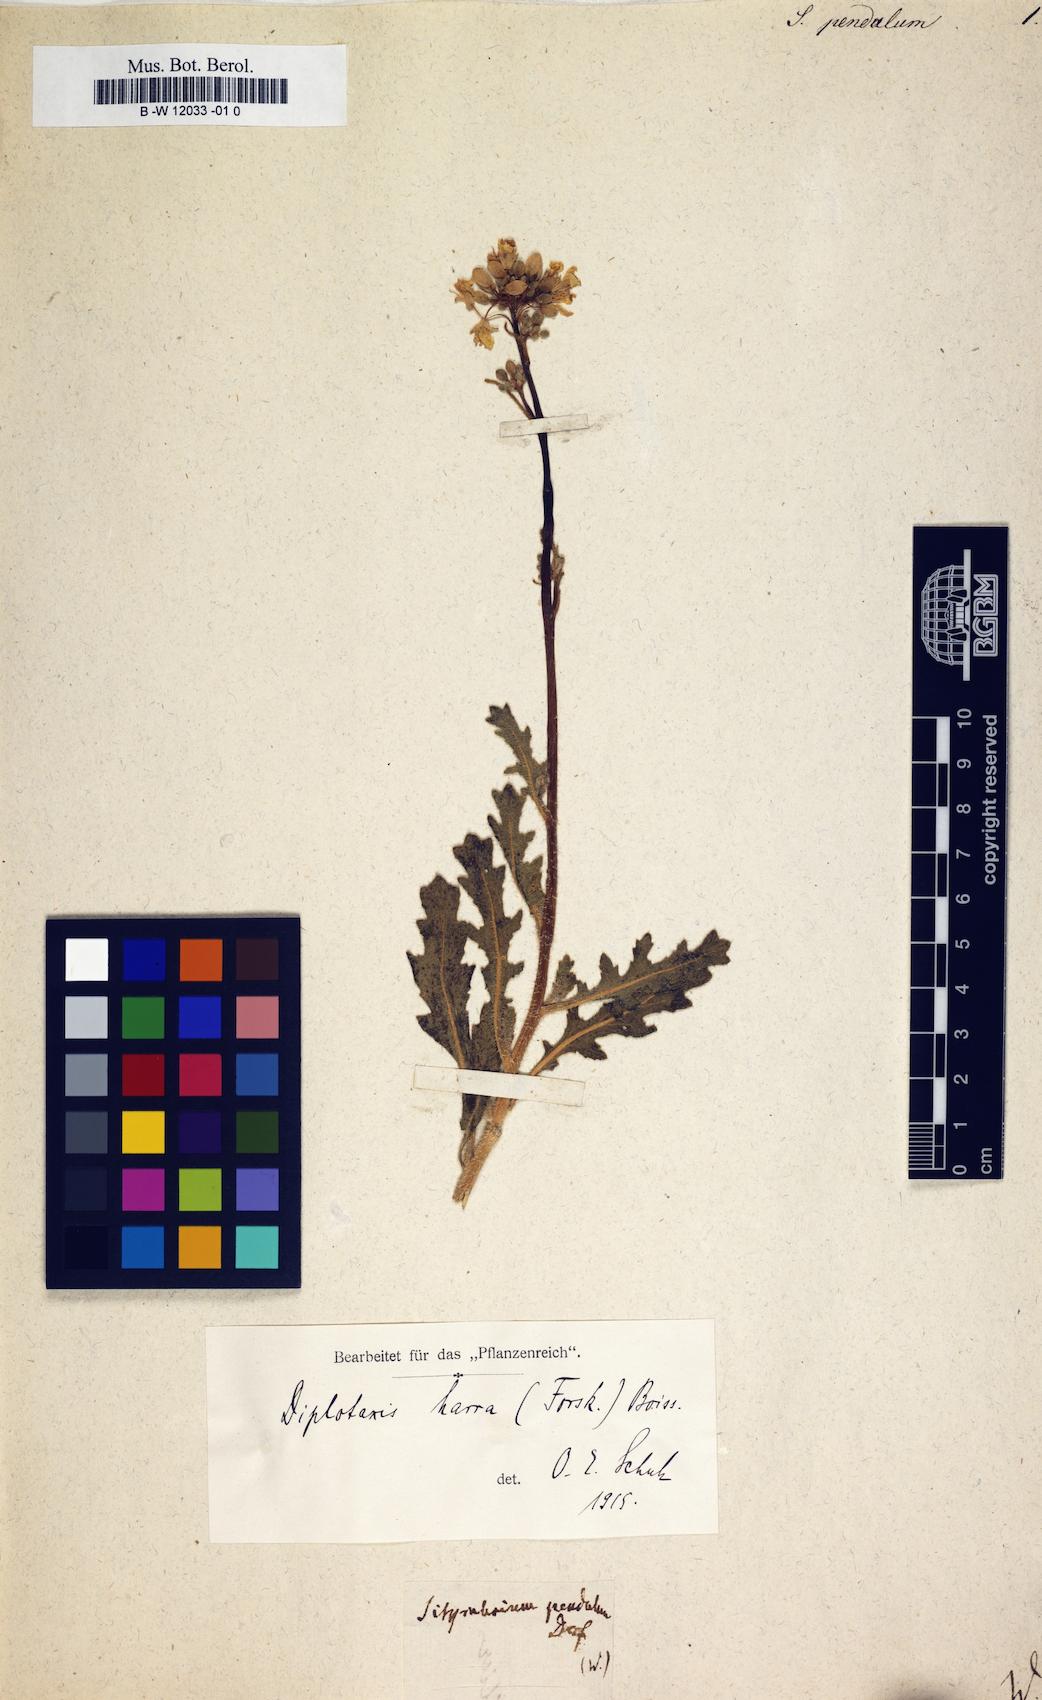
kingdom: Plantae
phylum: Tracheophyta
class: Magnoliopsida
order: Brassicales
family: Brassicaceae
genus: Sisymbrium
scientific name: Sisymbrium pendulum
